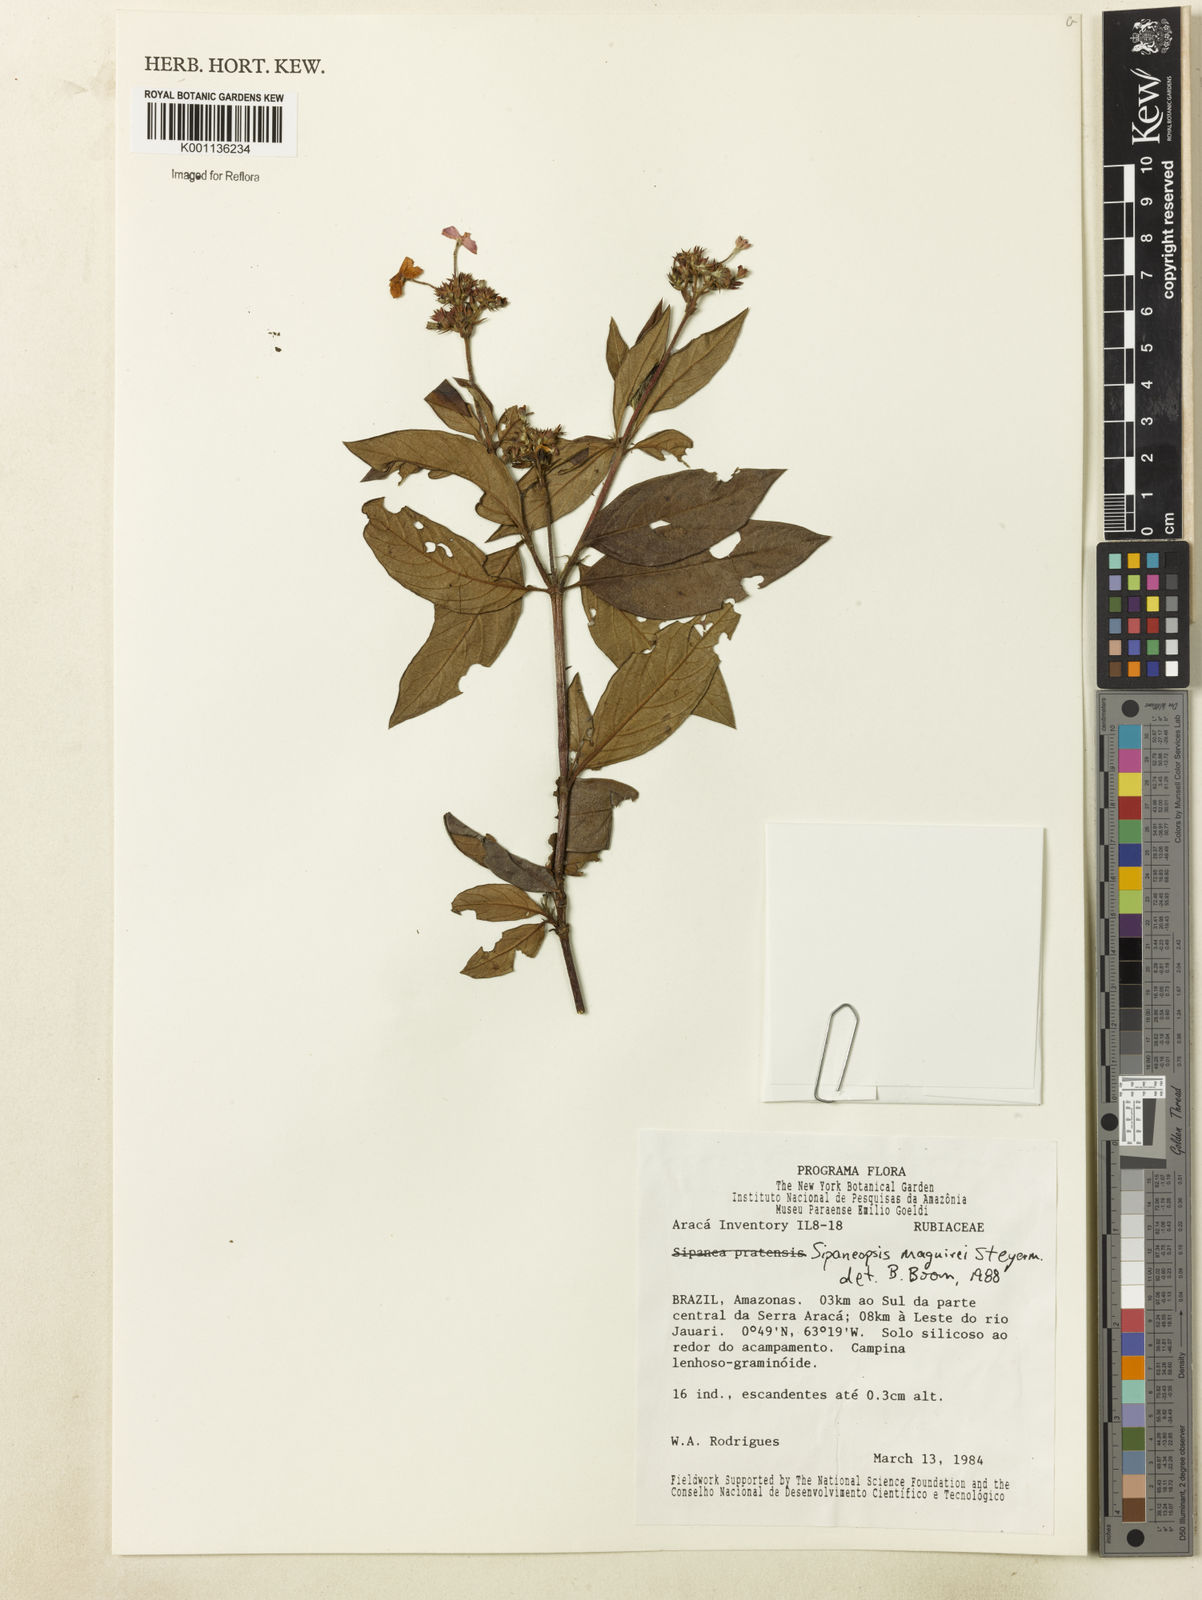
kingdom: Plantae
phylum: Tracheophyta
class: Magnoliopsida
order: Gentianales
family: Rubiaceae
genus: Sipaneopsis
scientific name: Sipaneopsis maguirei
